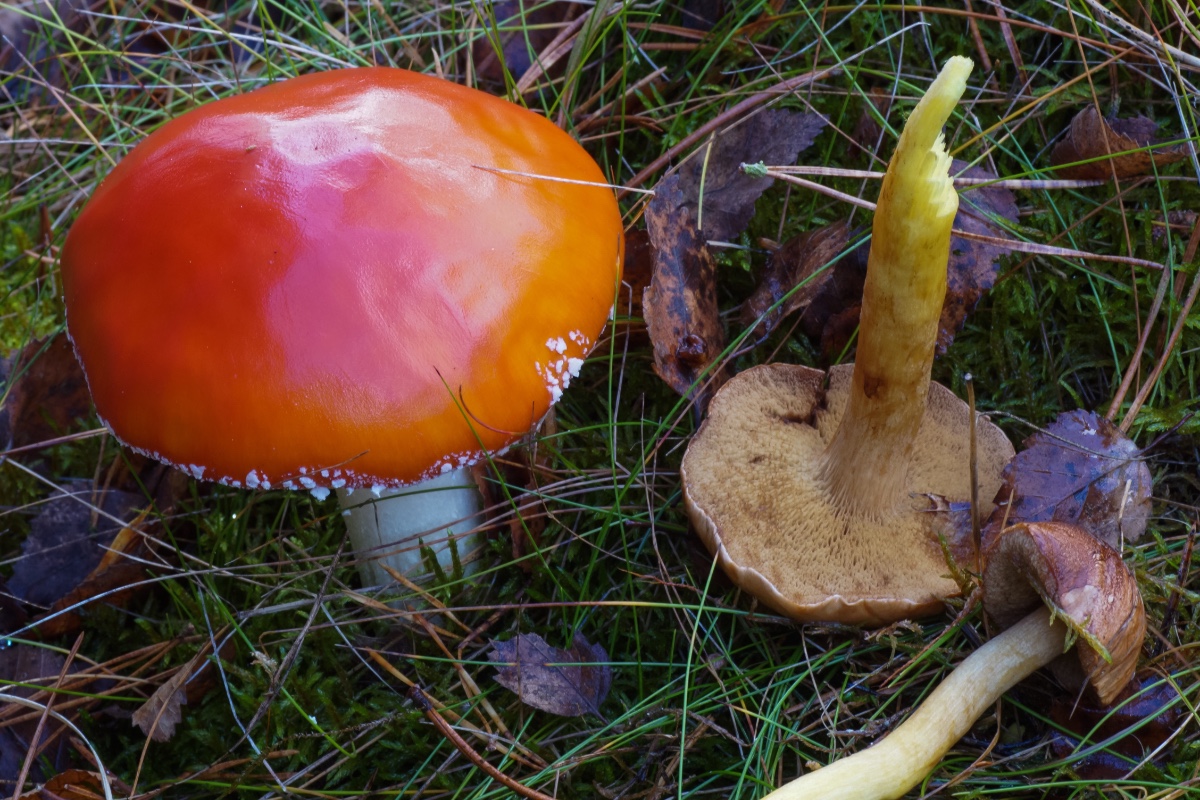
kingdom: Fungi
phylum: Basidiomycota
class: Agaricomycetes
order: Boletales
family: Boletaceae
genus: Chalciporus
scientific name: Chalciporus piperatus
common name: peberrørhat
